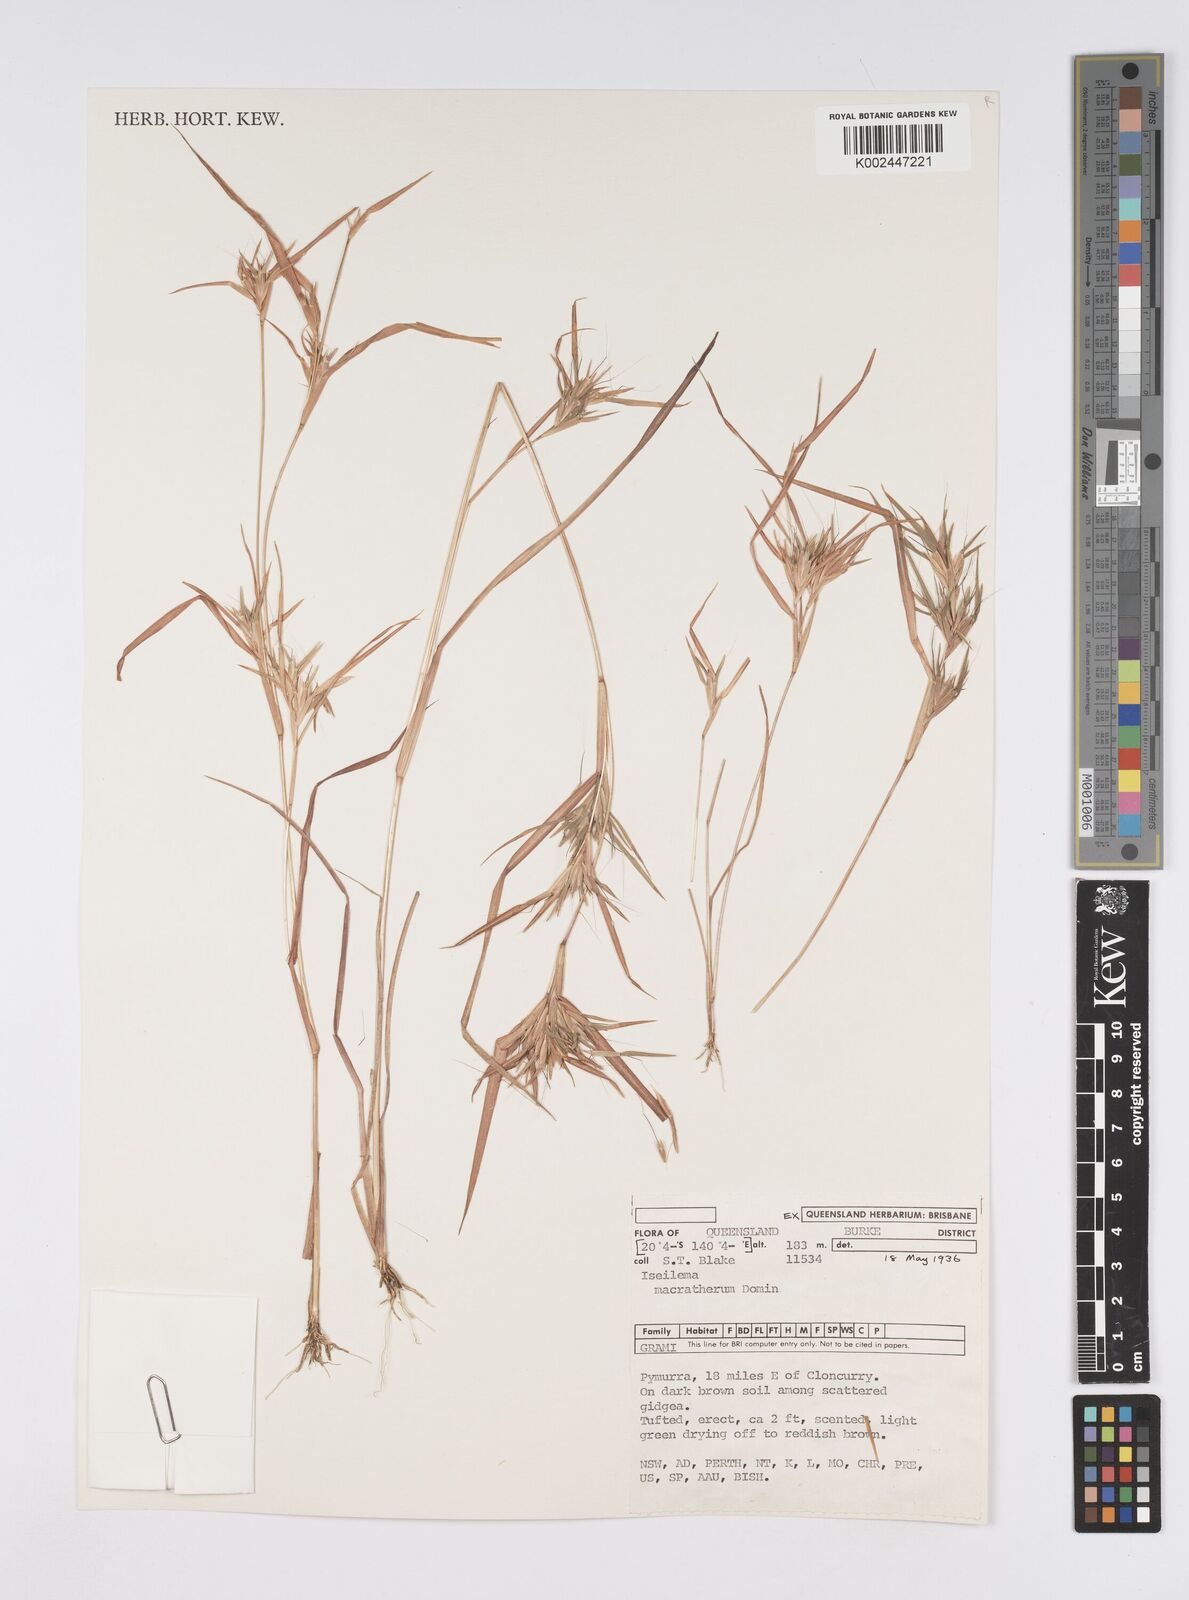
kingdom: Plantae
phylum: Tracheophyta
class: Liliopsida
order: Poales
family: Poaceae
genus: Iseilema
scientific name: Iseilema macratherum
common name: Bull flinders grass
